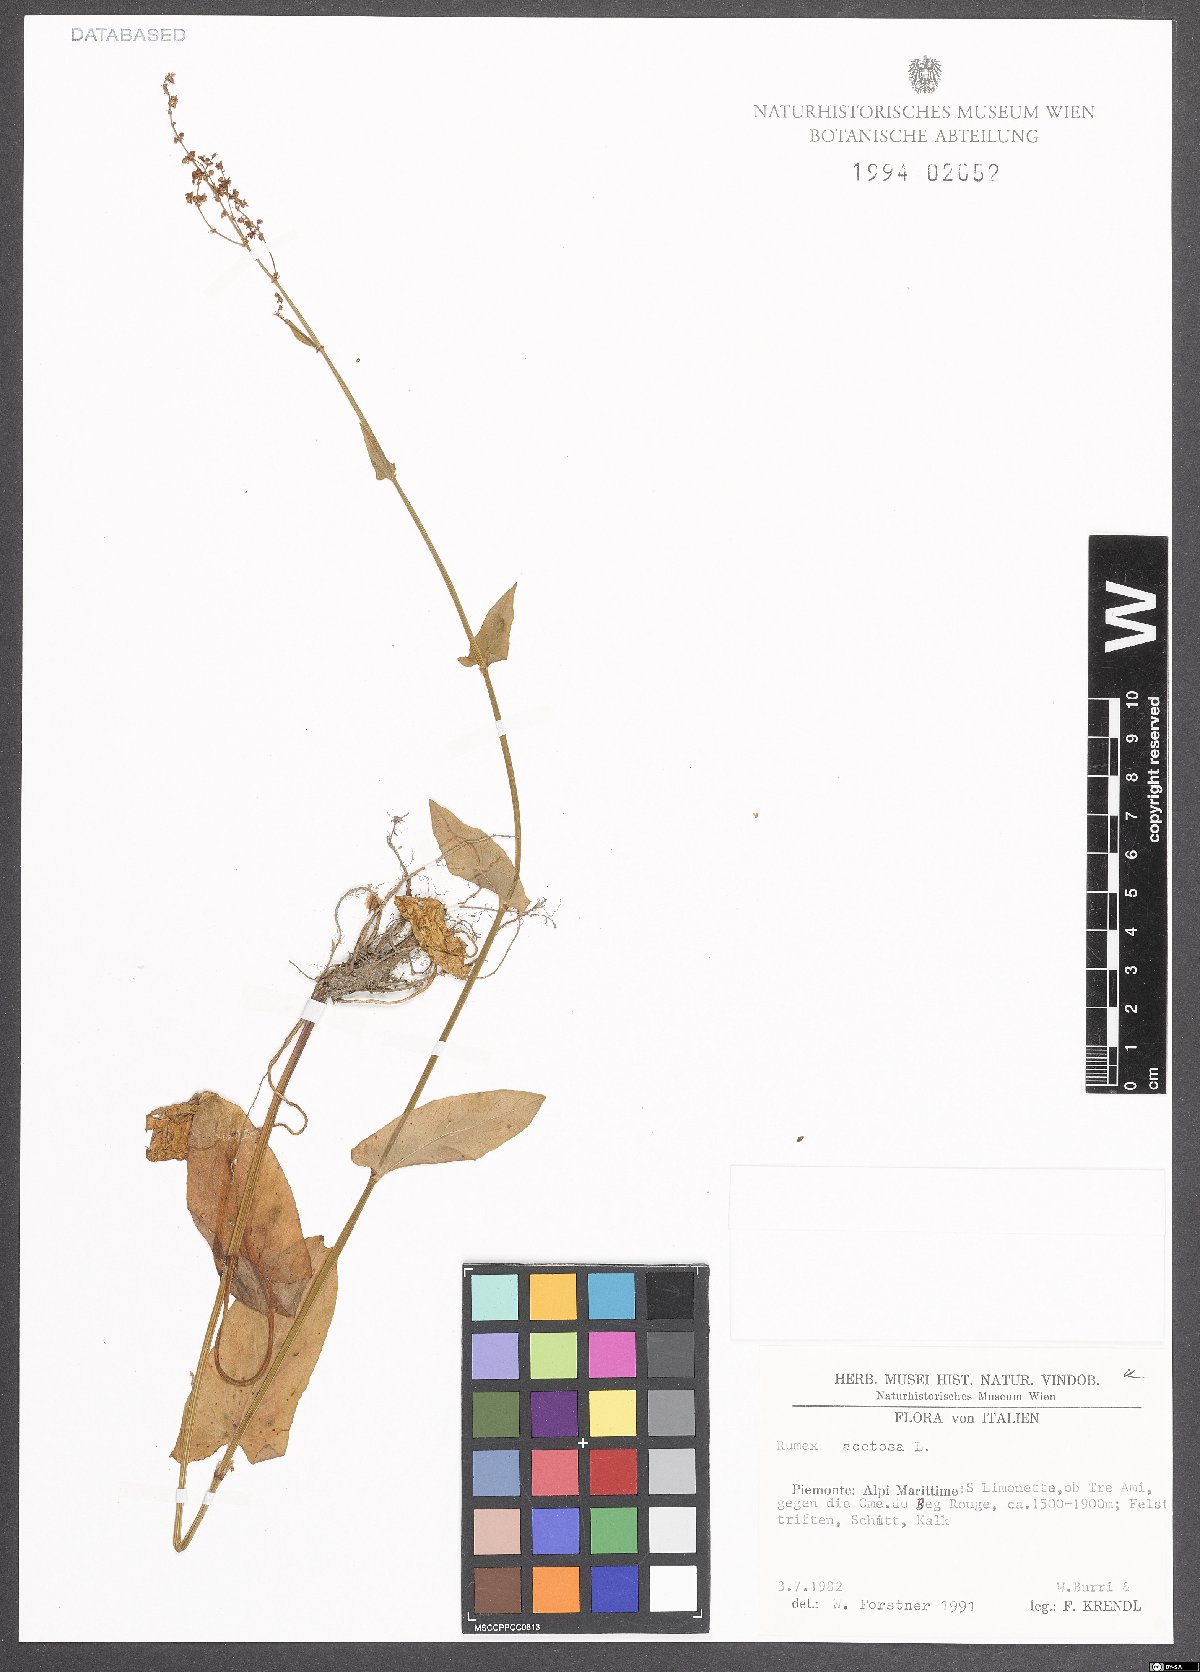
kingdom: Plantae
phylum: Tracheophyta
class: Magnoliopsida
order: Caryophyllales
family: Polygonaceae
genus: Rumex
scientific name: Rumex acetosa
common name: Garden sorrel
